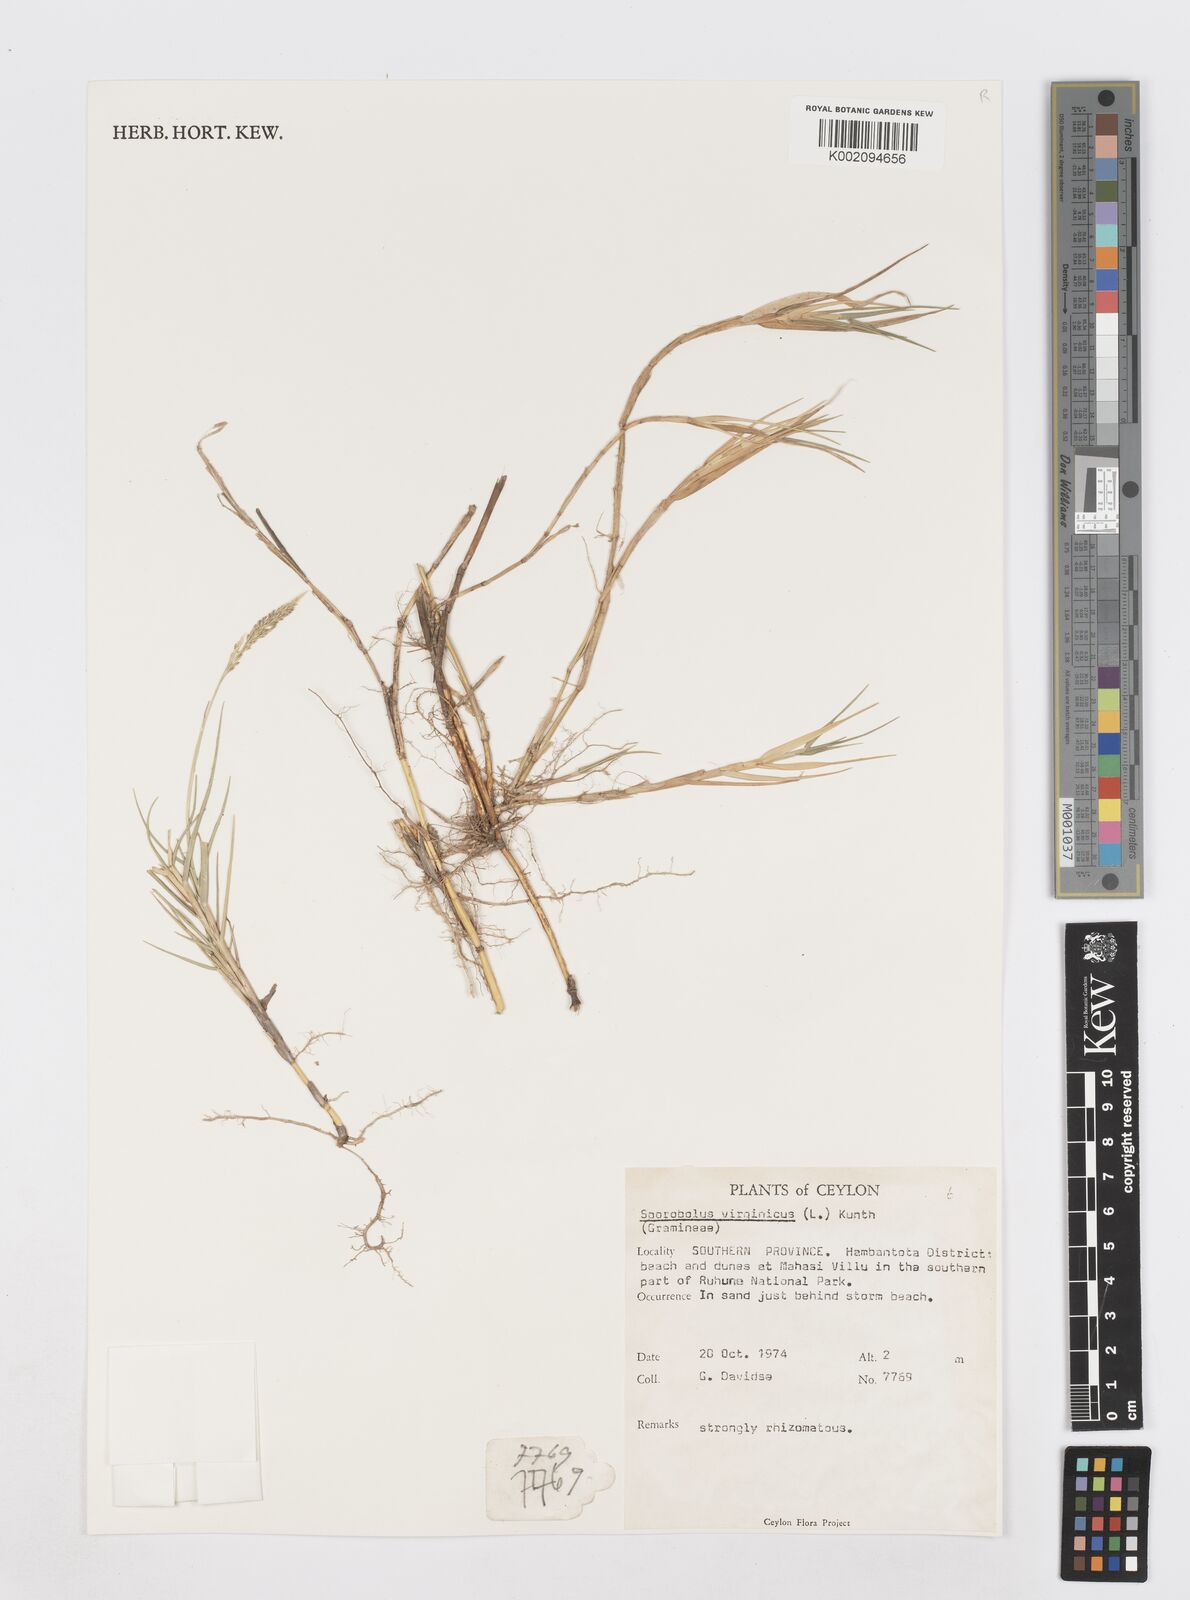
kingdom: Plantae
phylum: Tracheophyta
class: Liliopsida
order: Poales
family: Poaceae
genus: Sporobolus
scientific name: Sporobolus virginicus
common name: Beach dropseed
